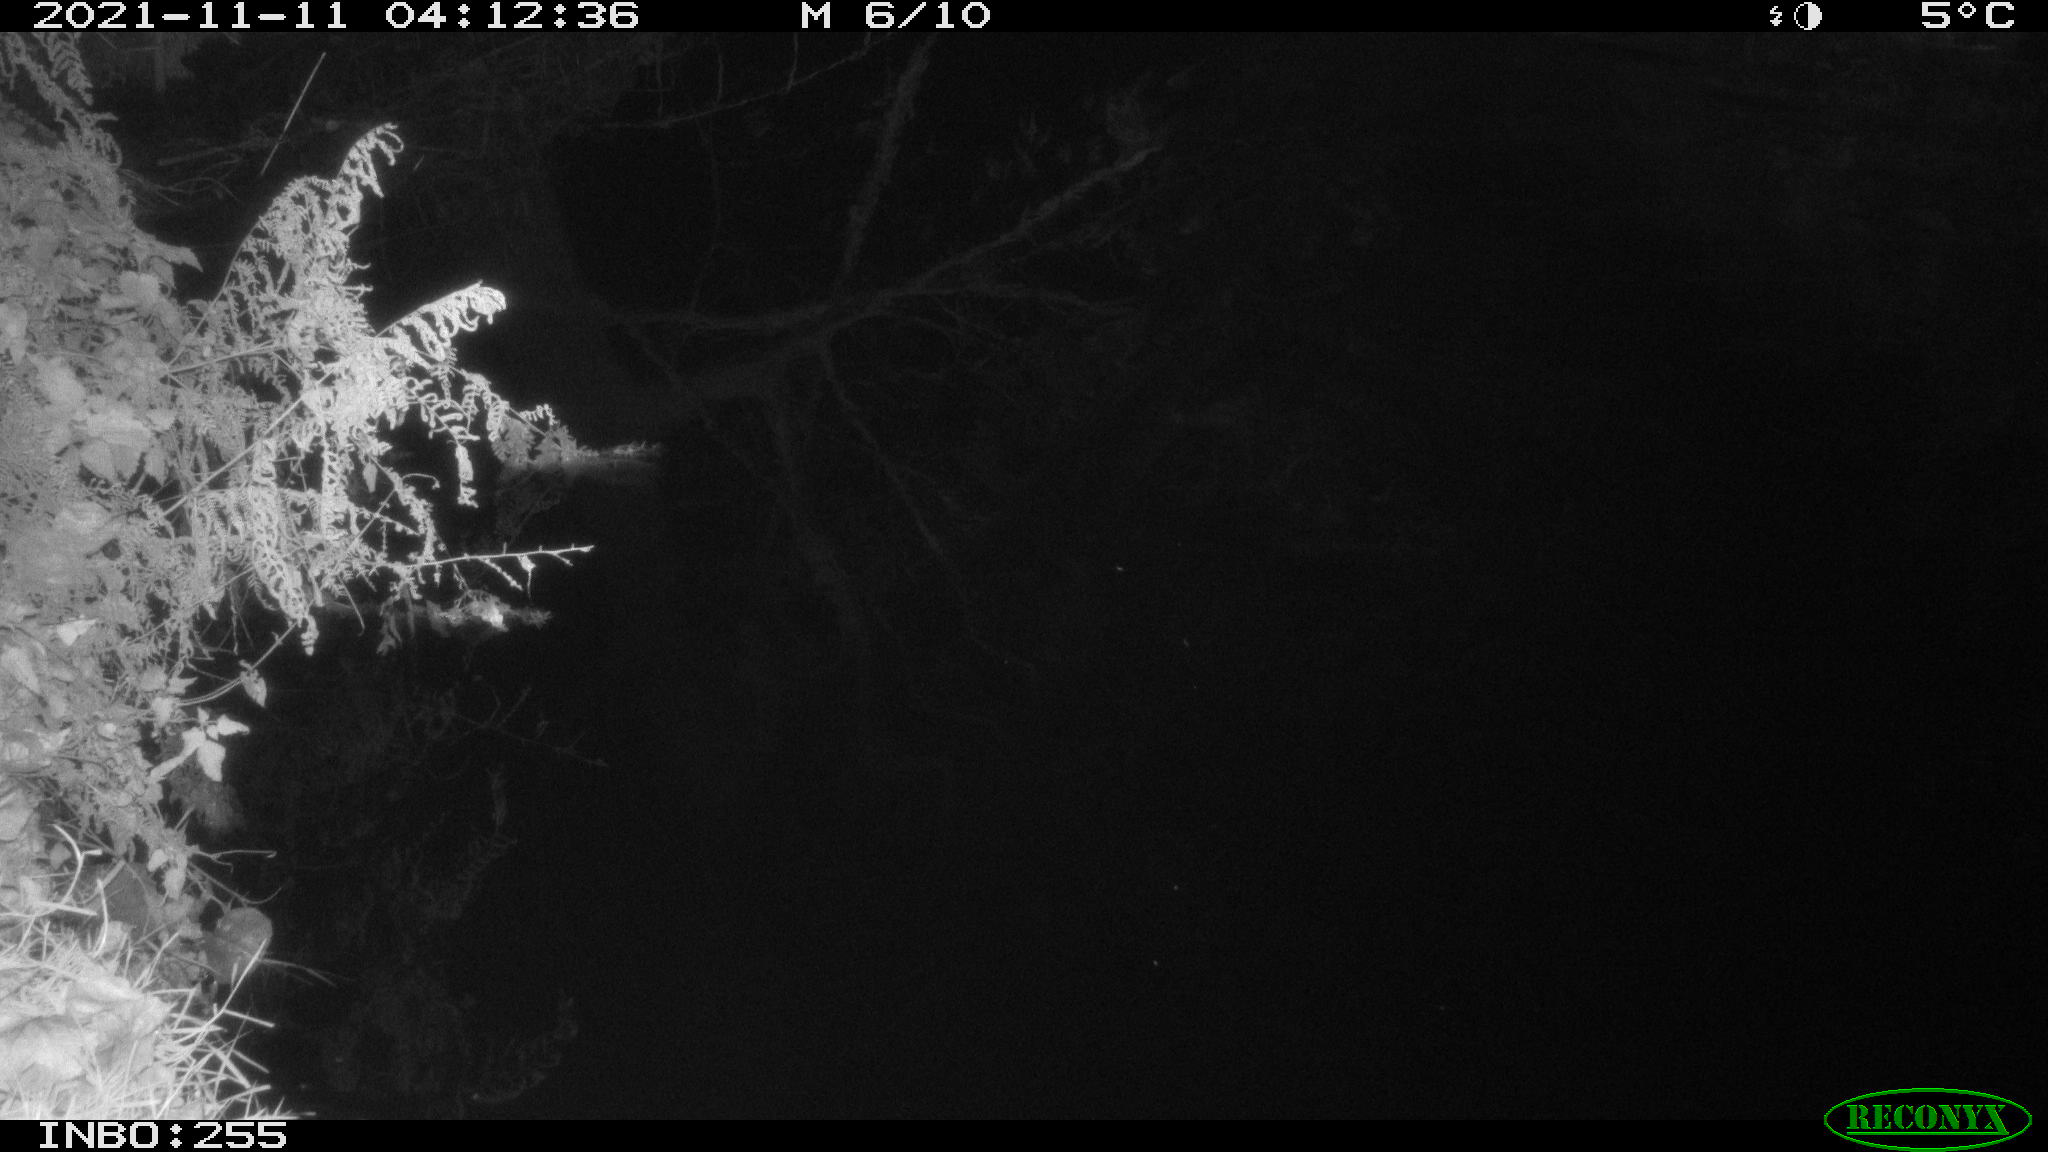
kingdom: Animalia
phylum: Chordata
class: Aves
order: Anseriformes
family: Anatidae
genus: Anas
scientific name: Anas platyrhynchos
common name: Mallard
